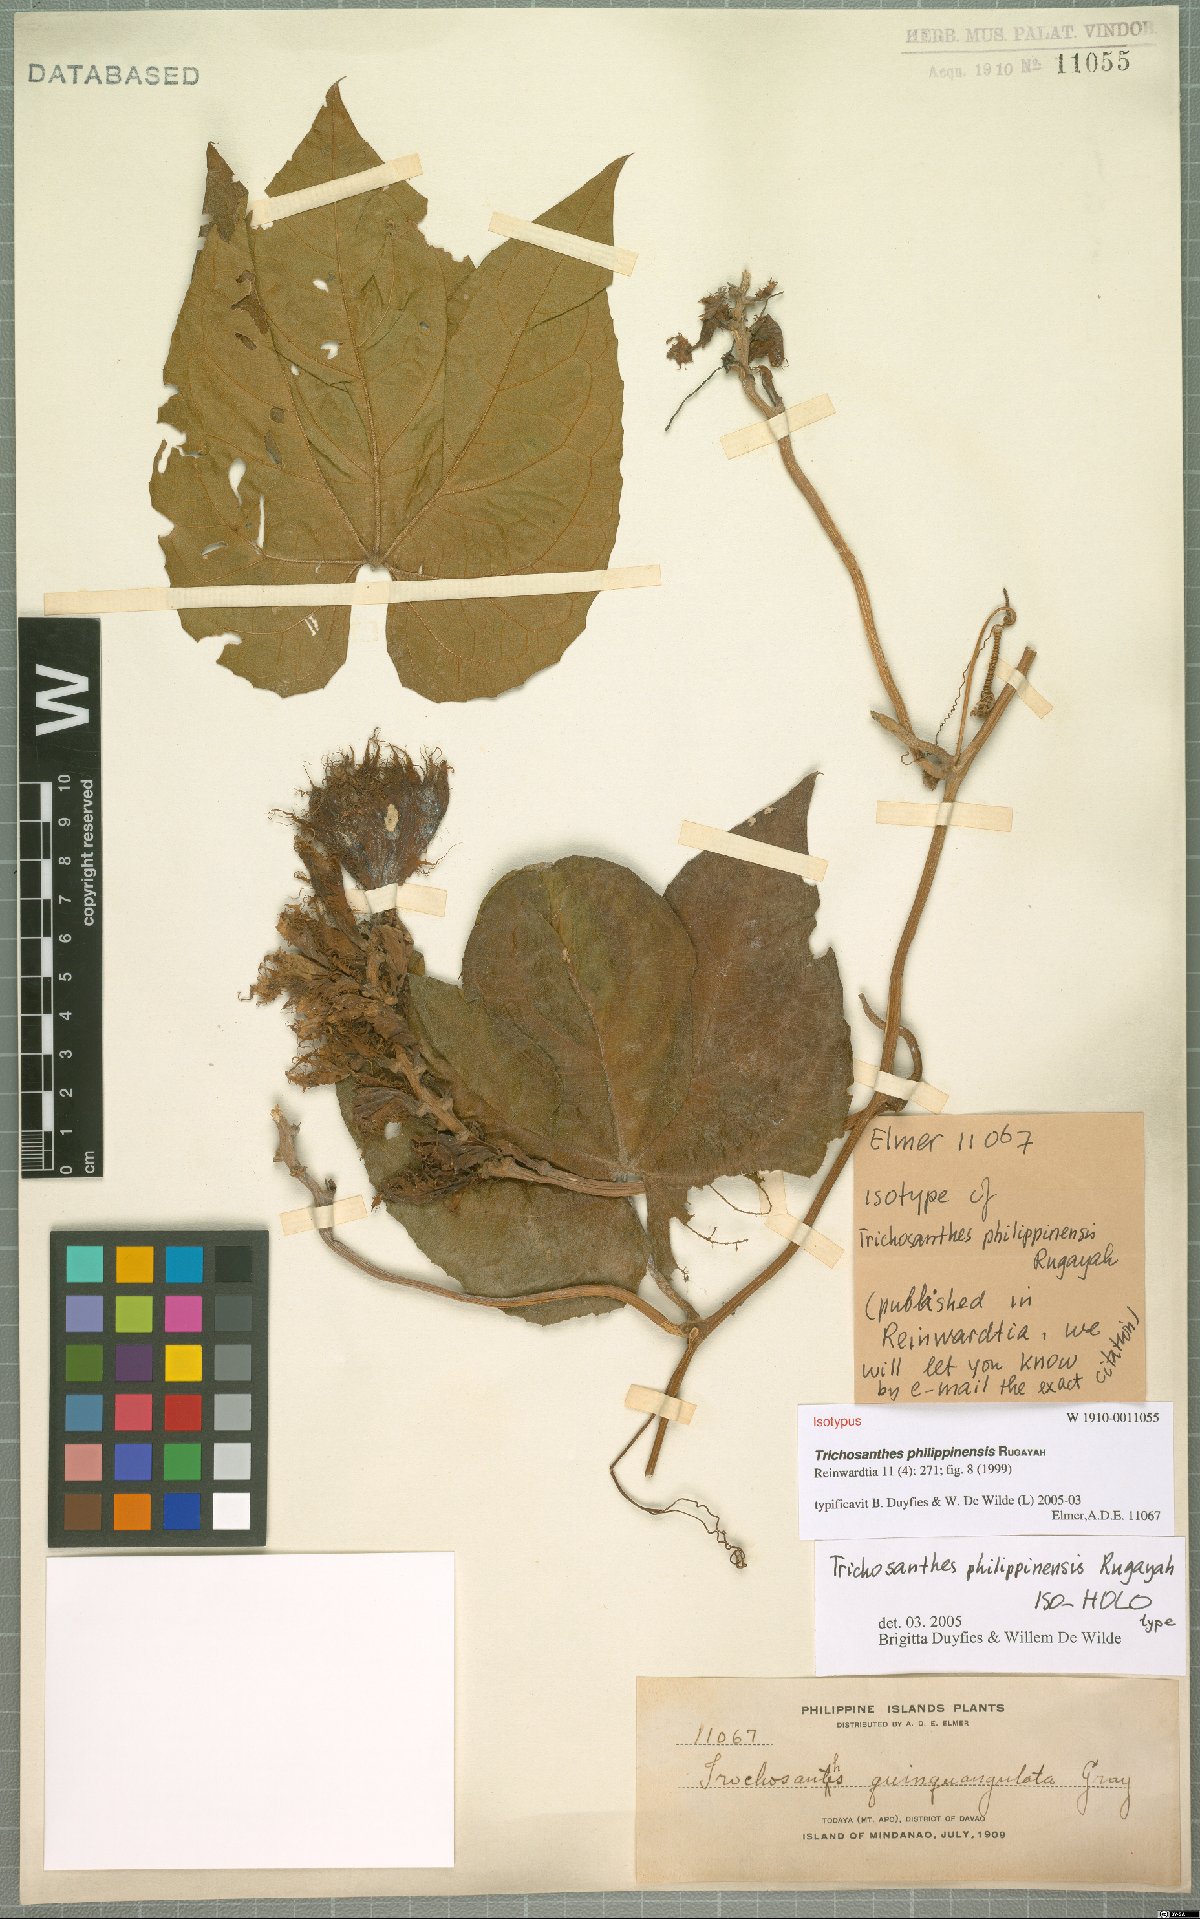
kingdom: Plantae
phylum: Tracheophyta
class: Magnoliopsida
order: Cucurbitales
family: Cucurbitaceae
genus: Trichosanthes
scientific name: Trichosanthes philippinensis
